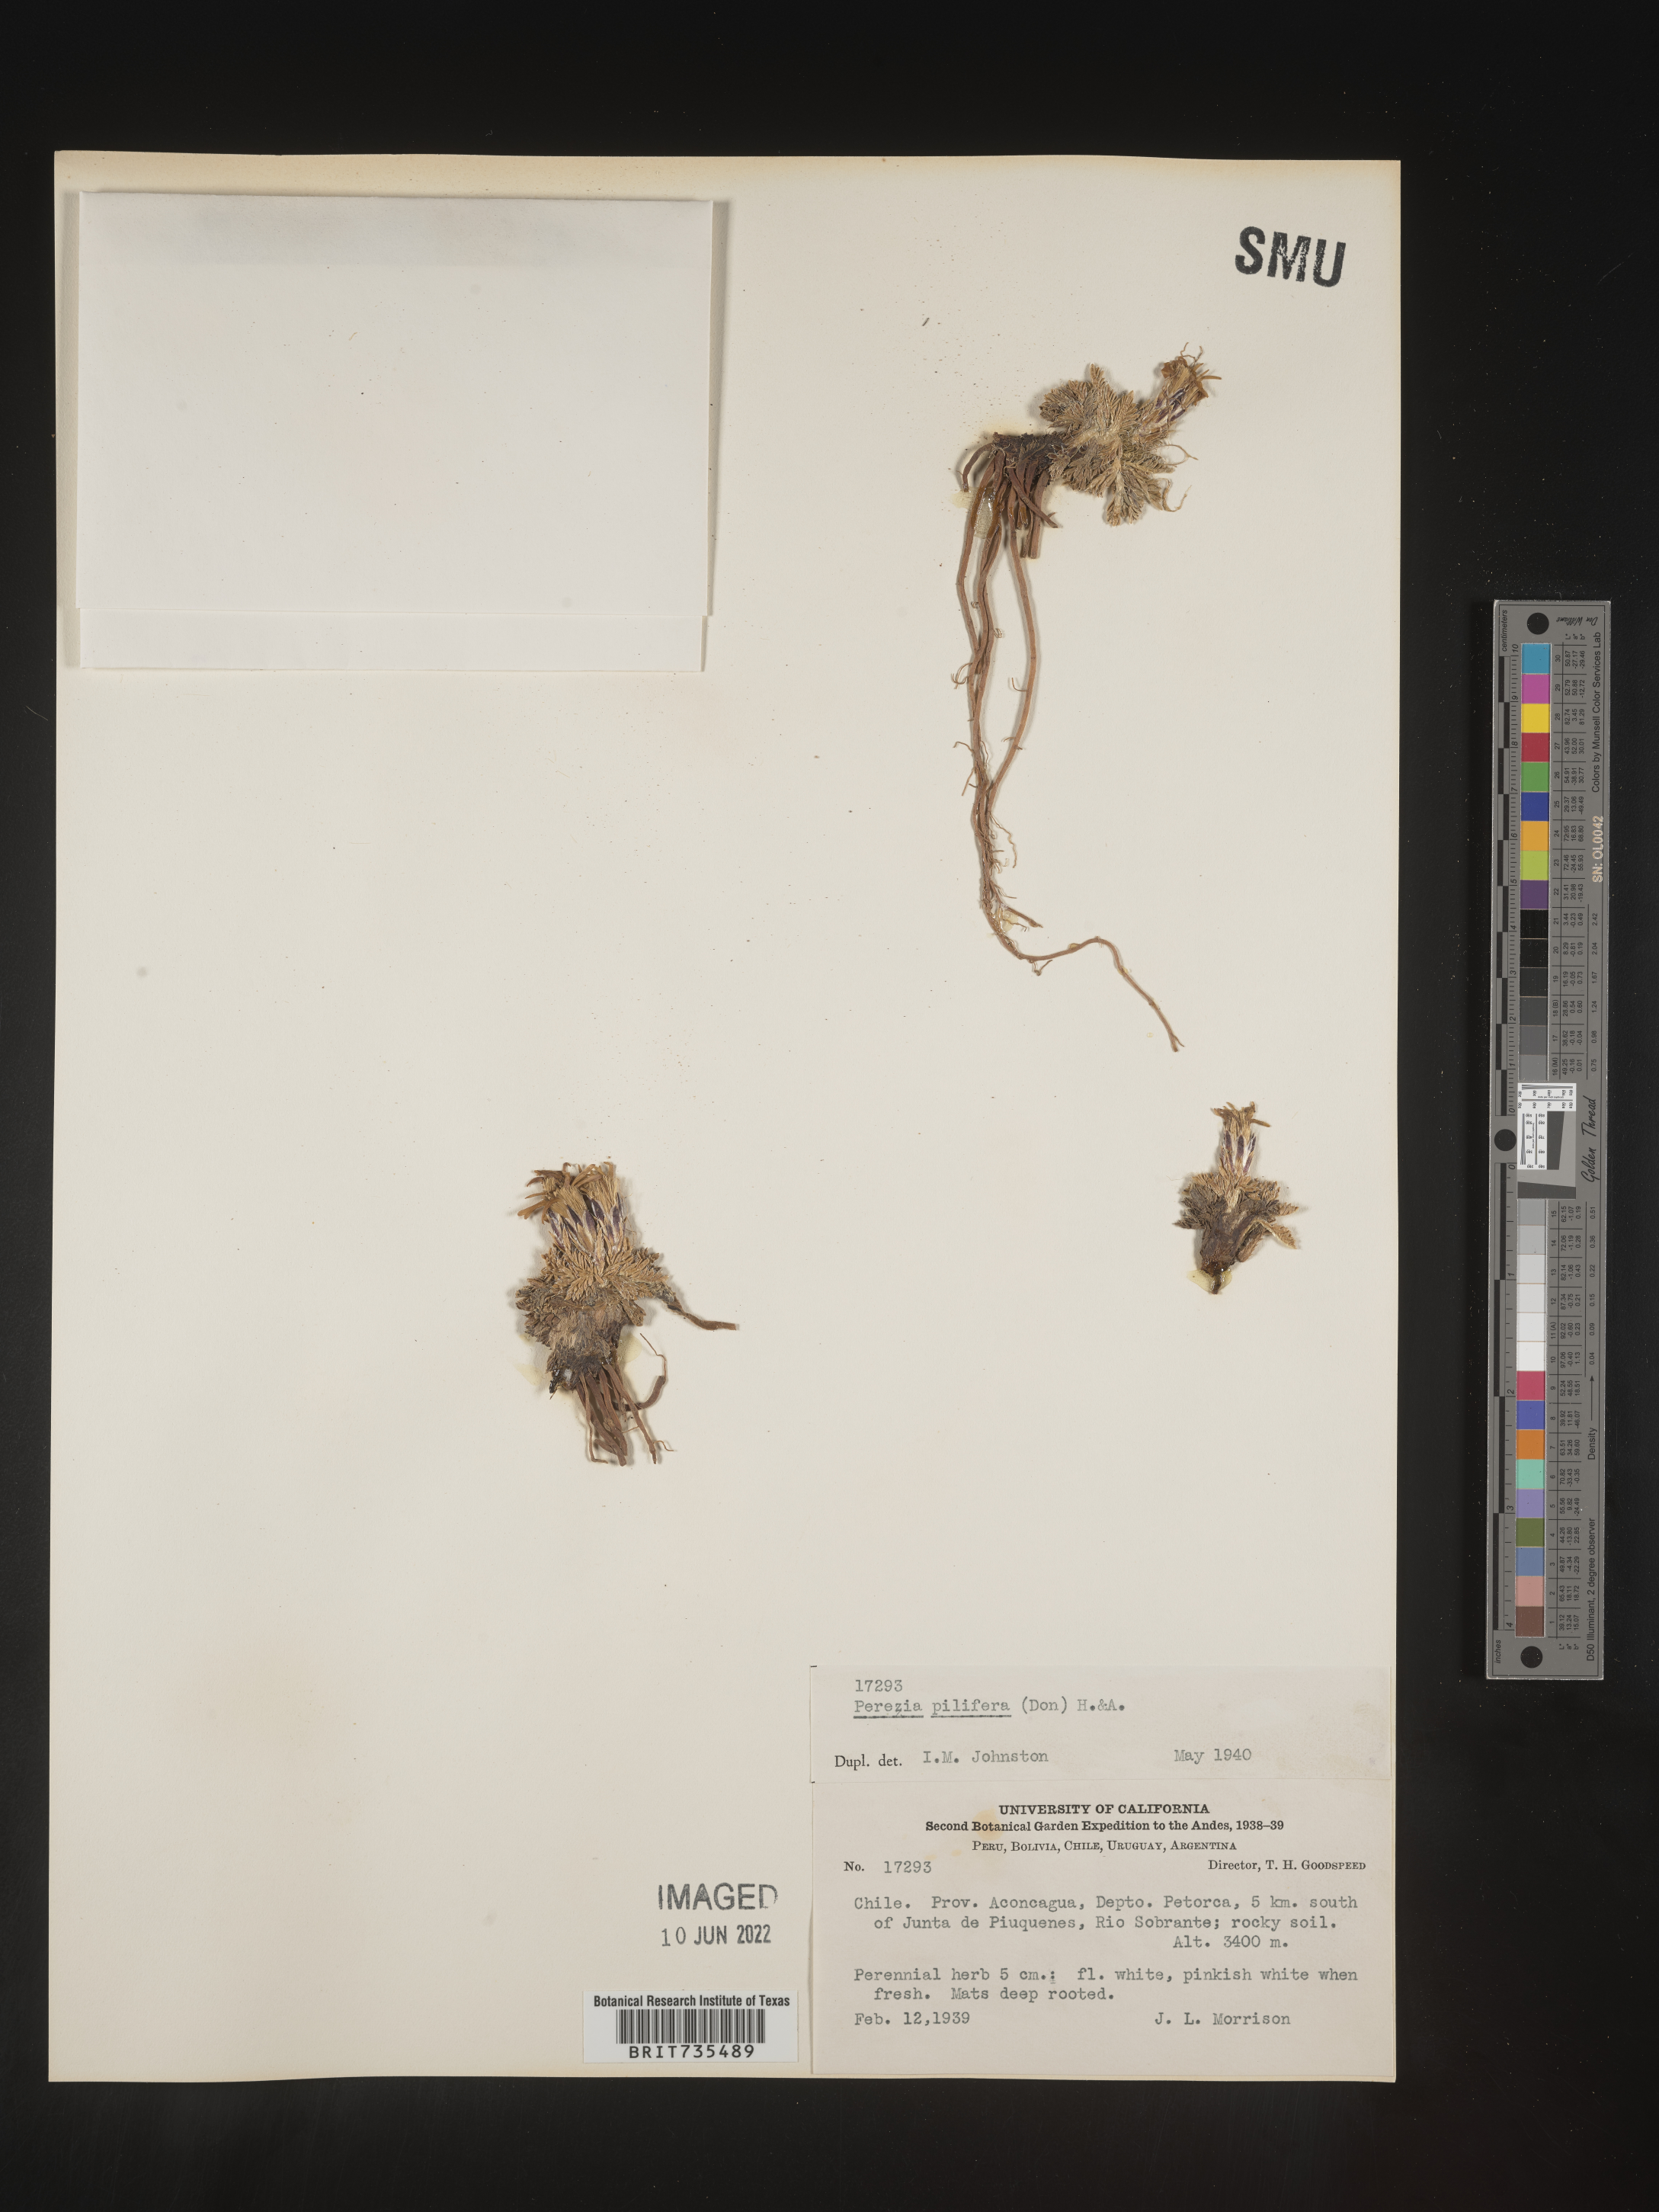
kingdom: Plantae
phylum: Tracheophyta
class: Magnoliopsida
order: Asterales
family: Asteraceae
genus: Perezia
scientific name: Perezia
